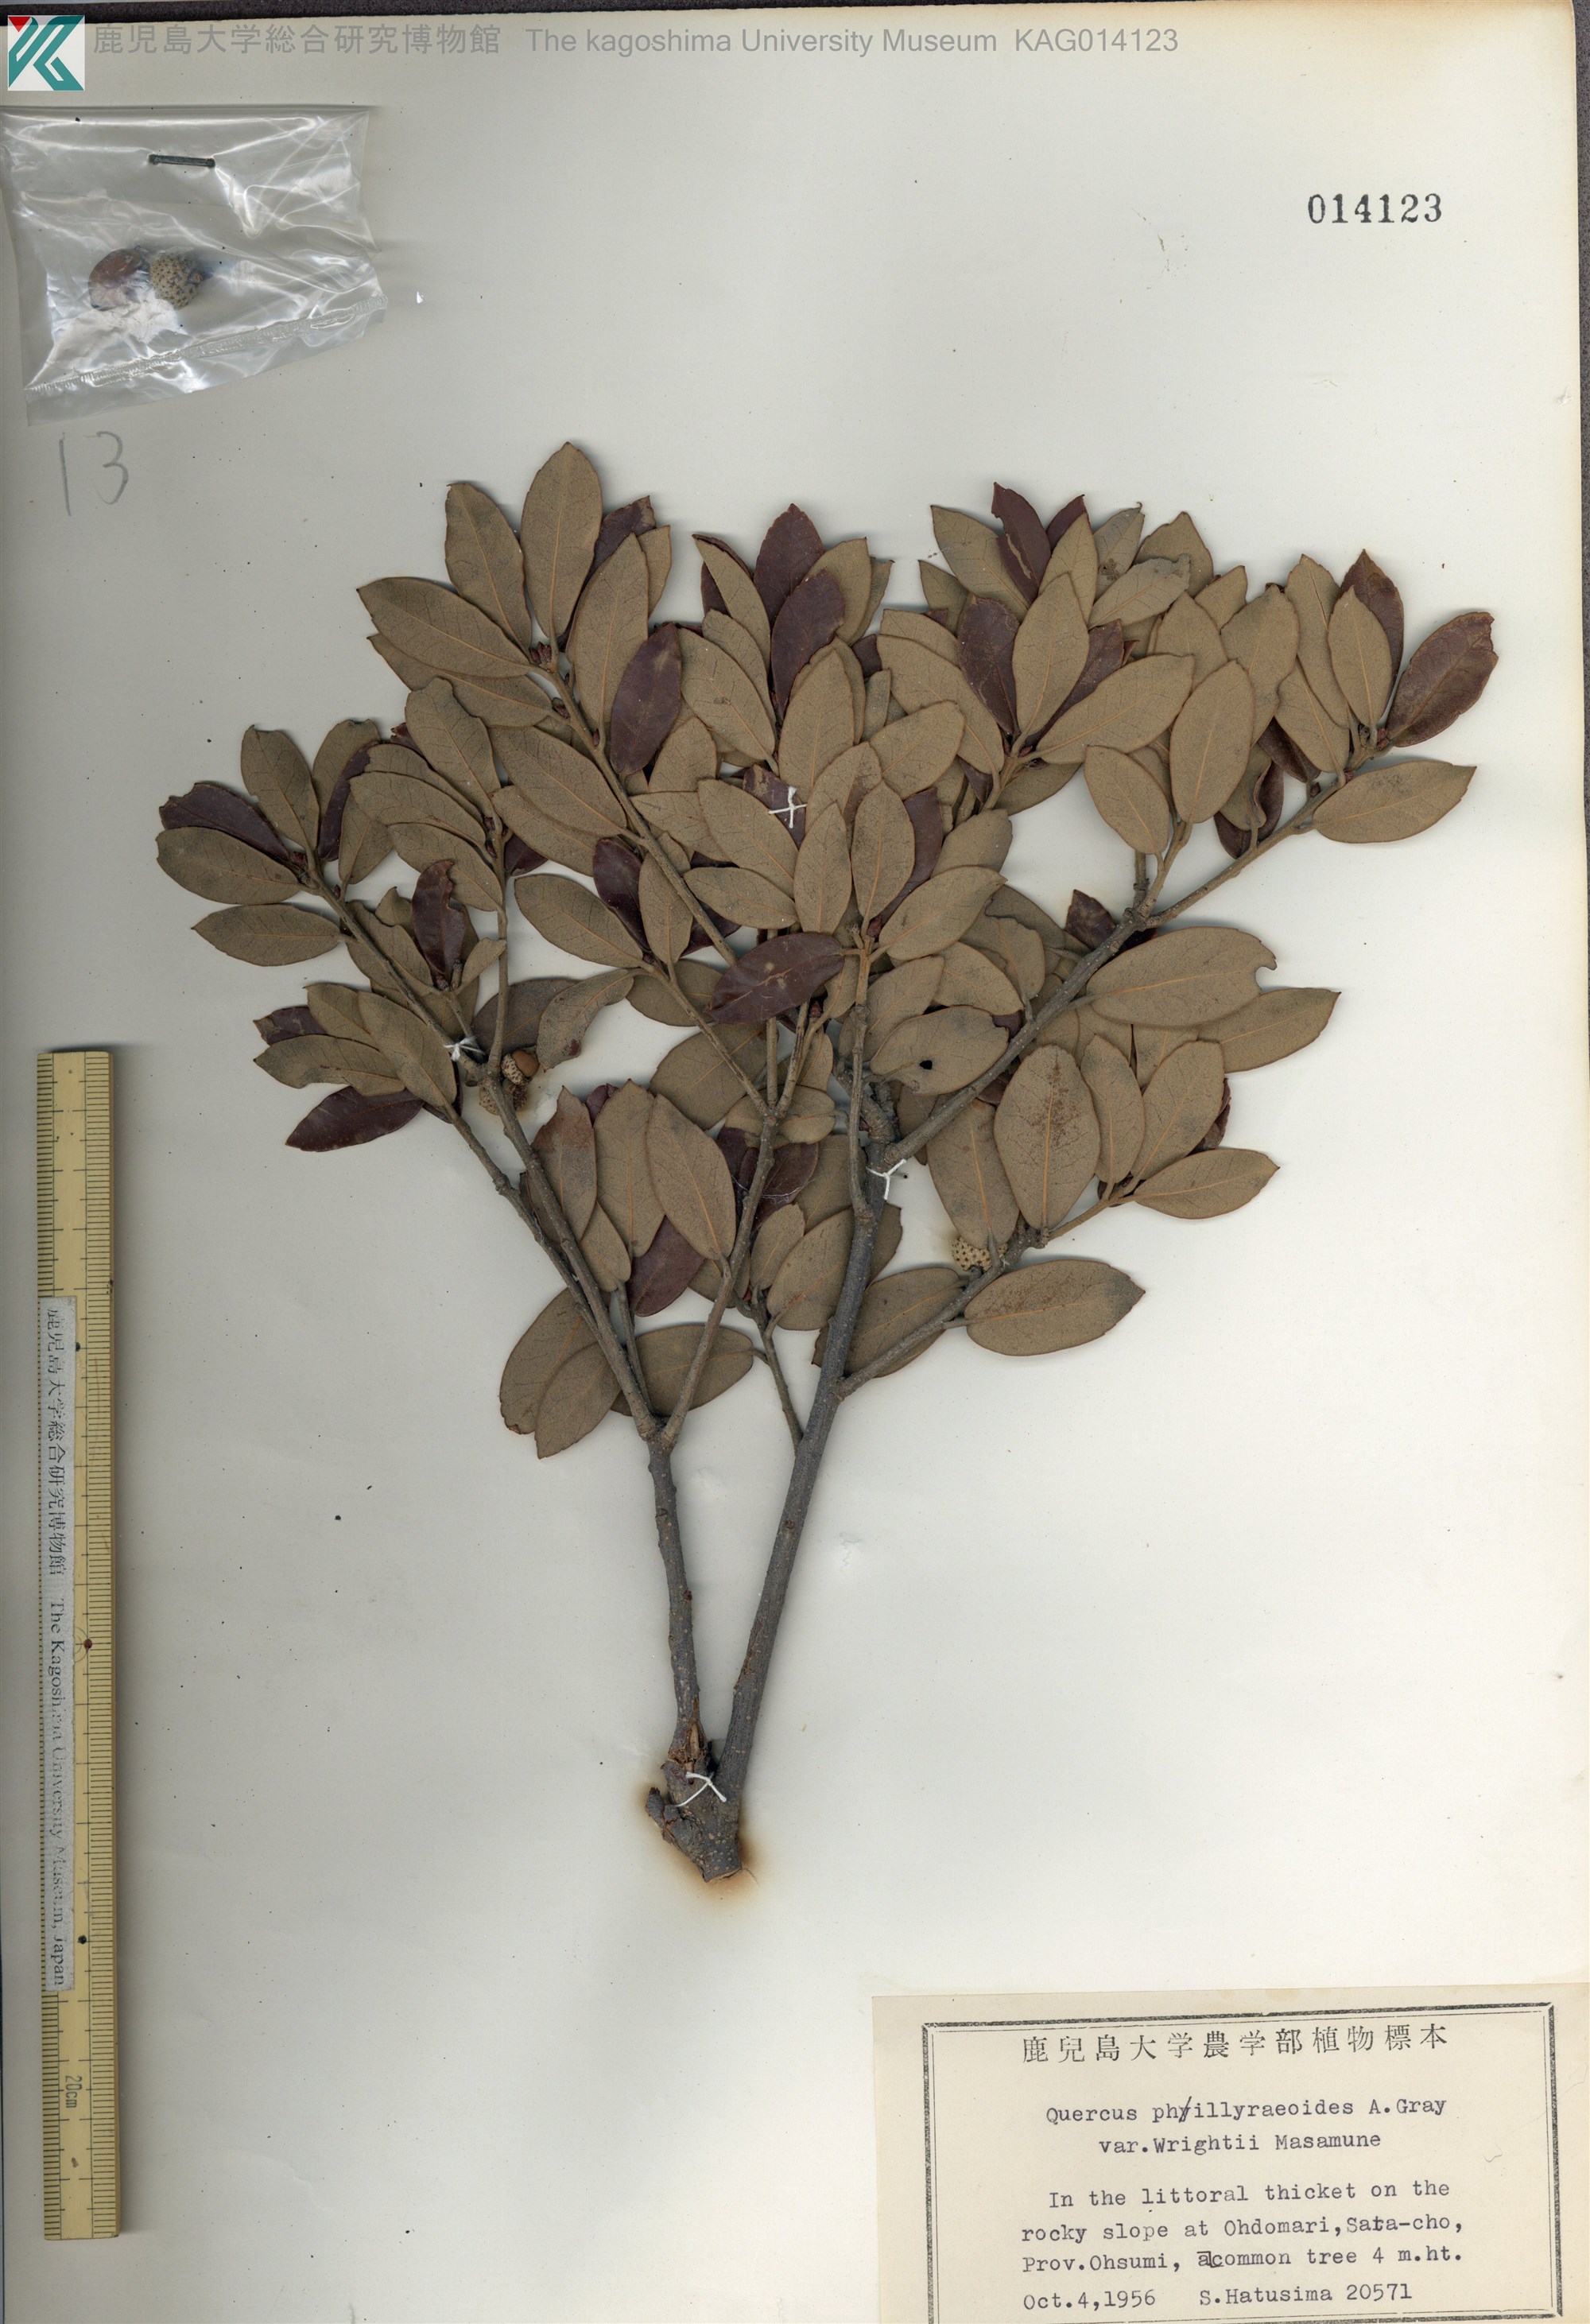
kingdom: Plantae
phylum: Tracheophyta
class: Magnoliopsida
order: Fagales
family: Fagaceae
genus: Quercus
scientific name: Quercus phillyreoides
